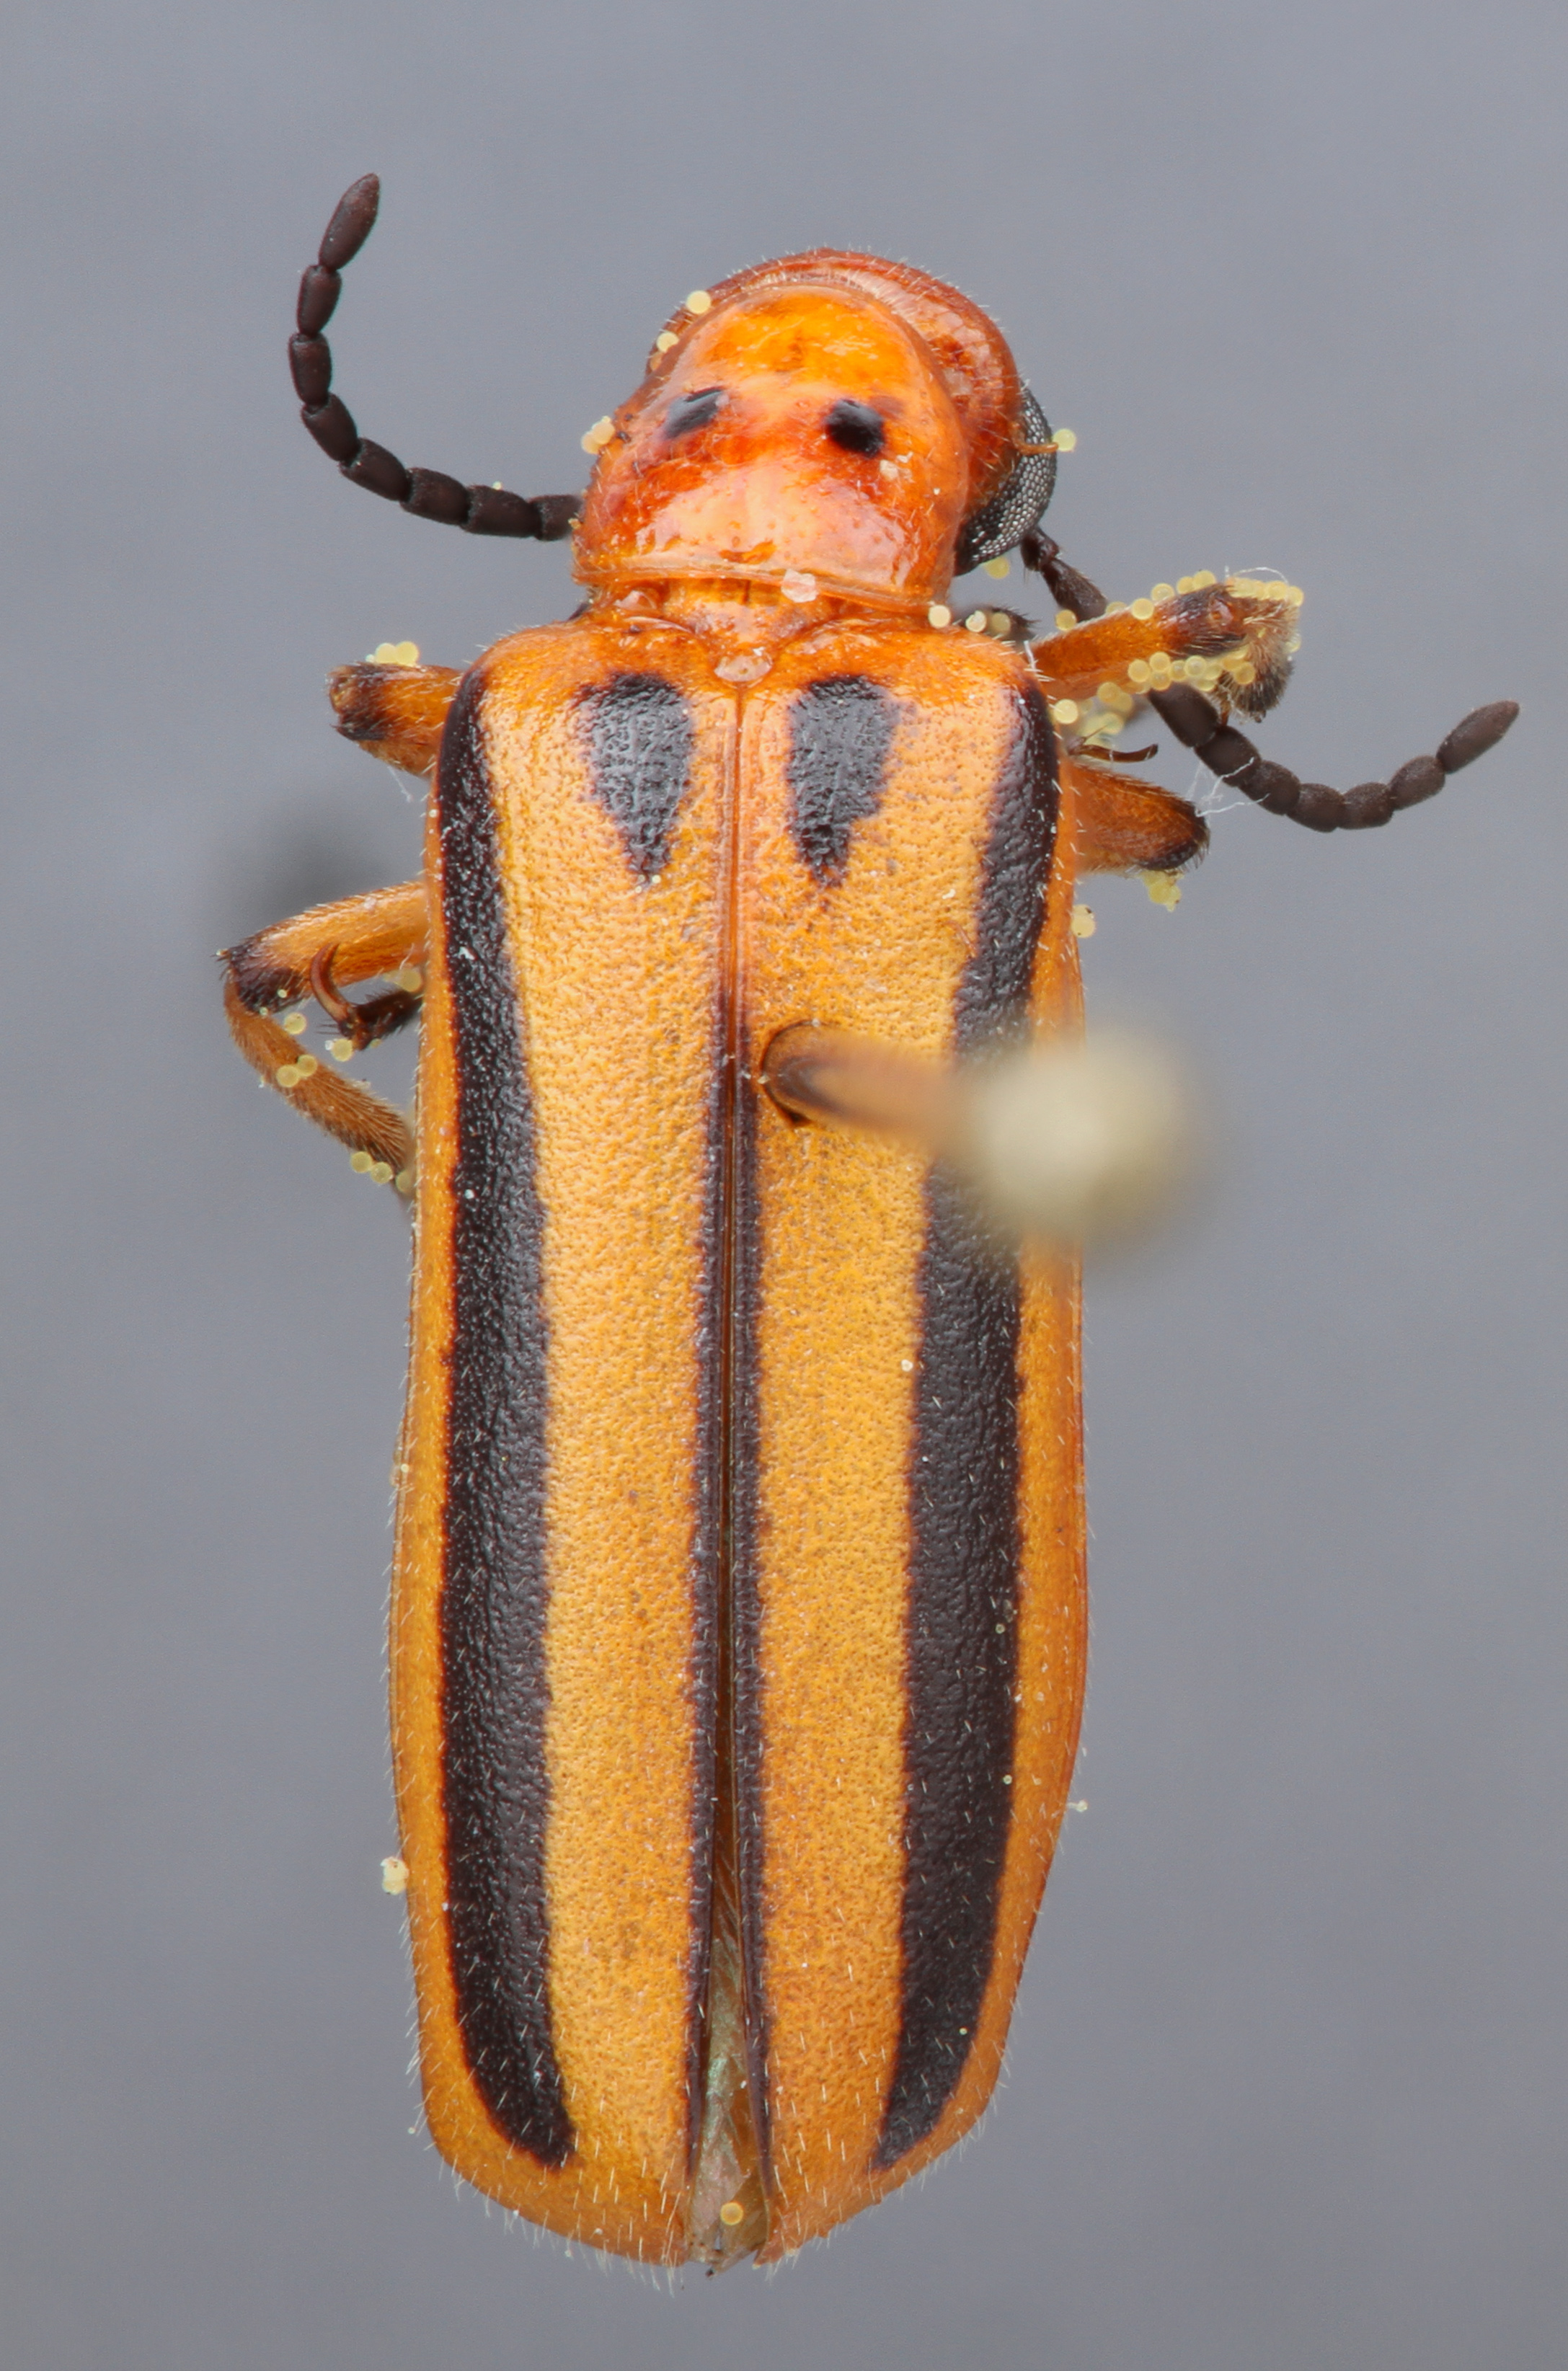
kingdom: Animalia
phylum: Arthropoda
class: Insecta
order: Coleoptera
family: Meloidae
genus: Pyrota
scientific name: Pyrota discoidea
